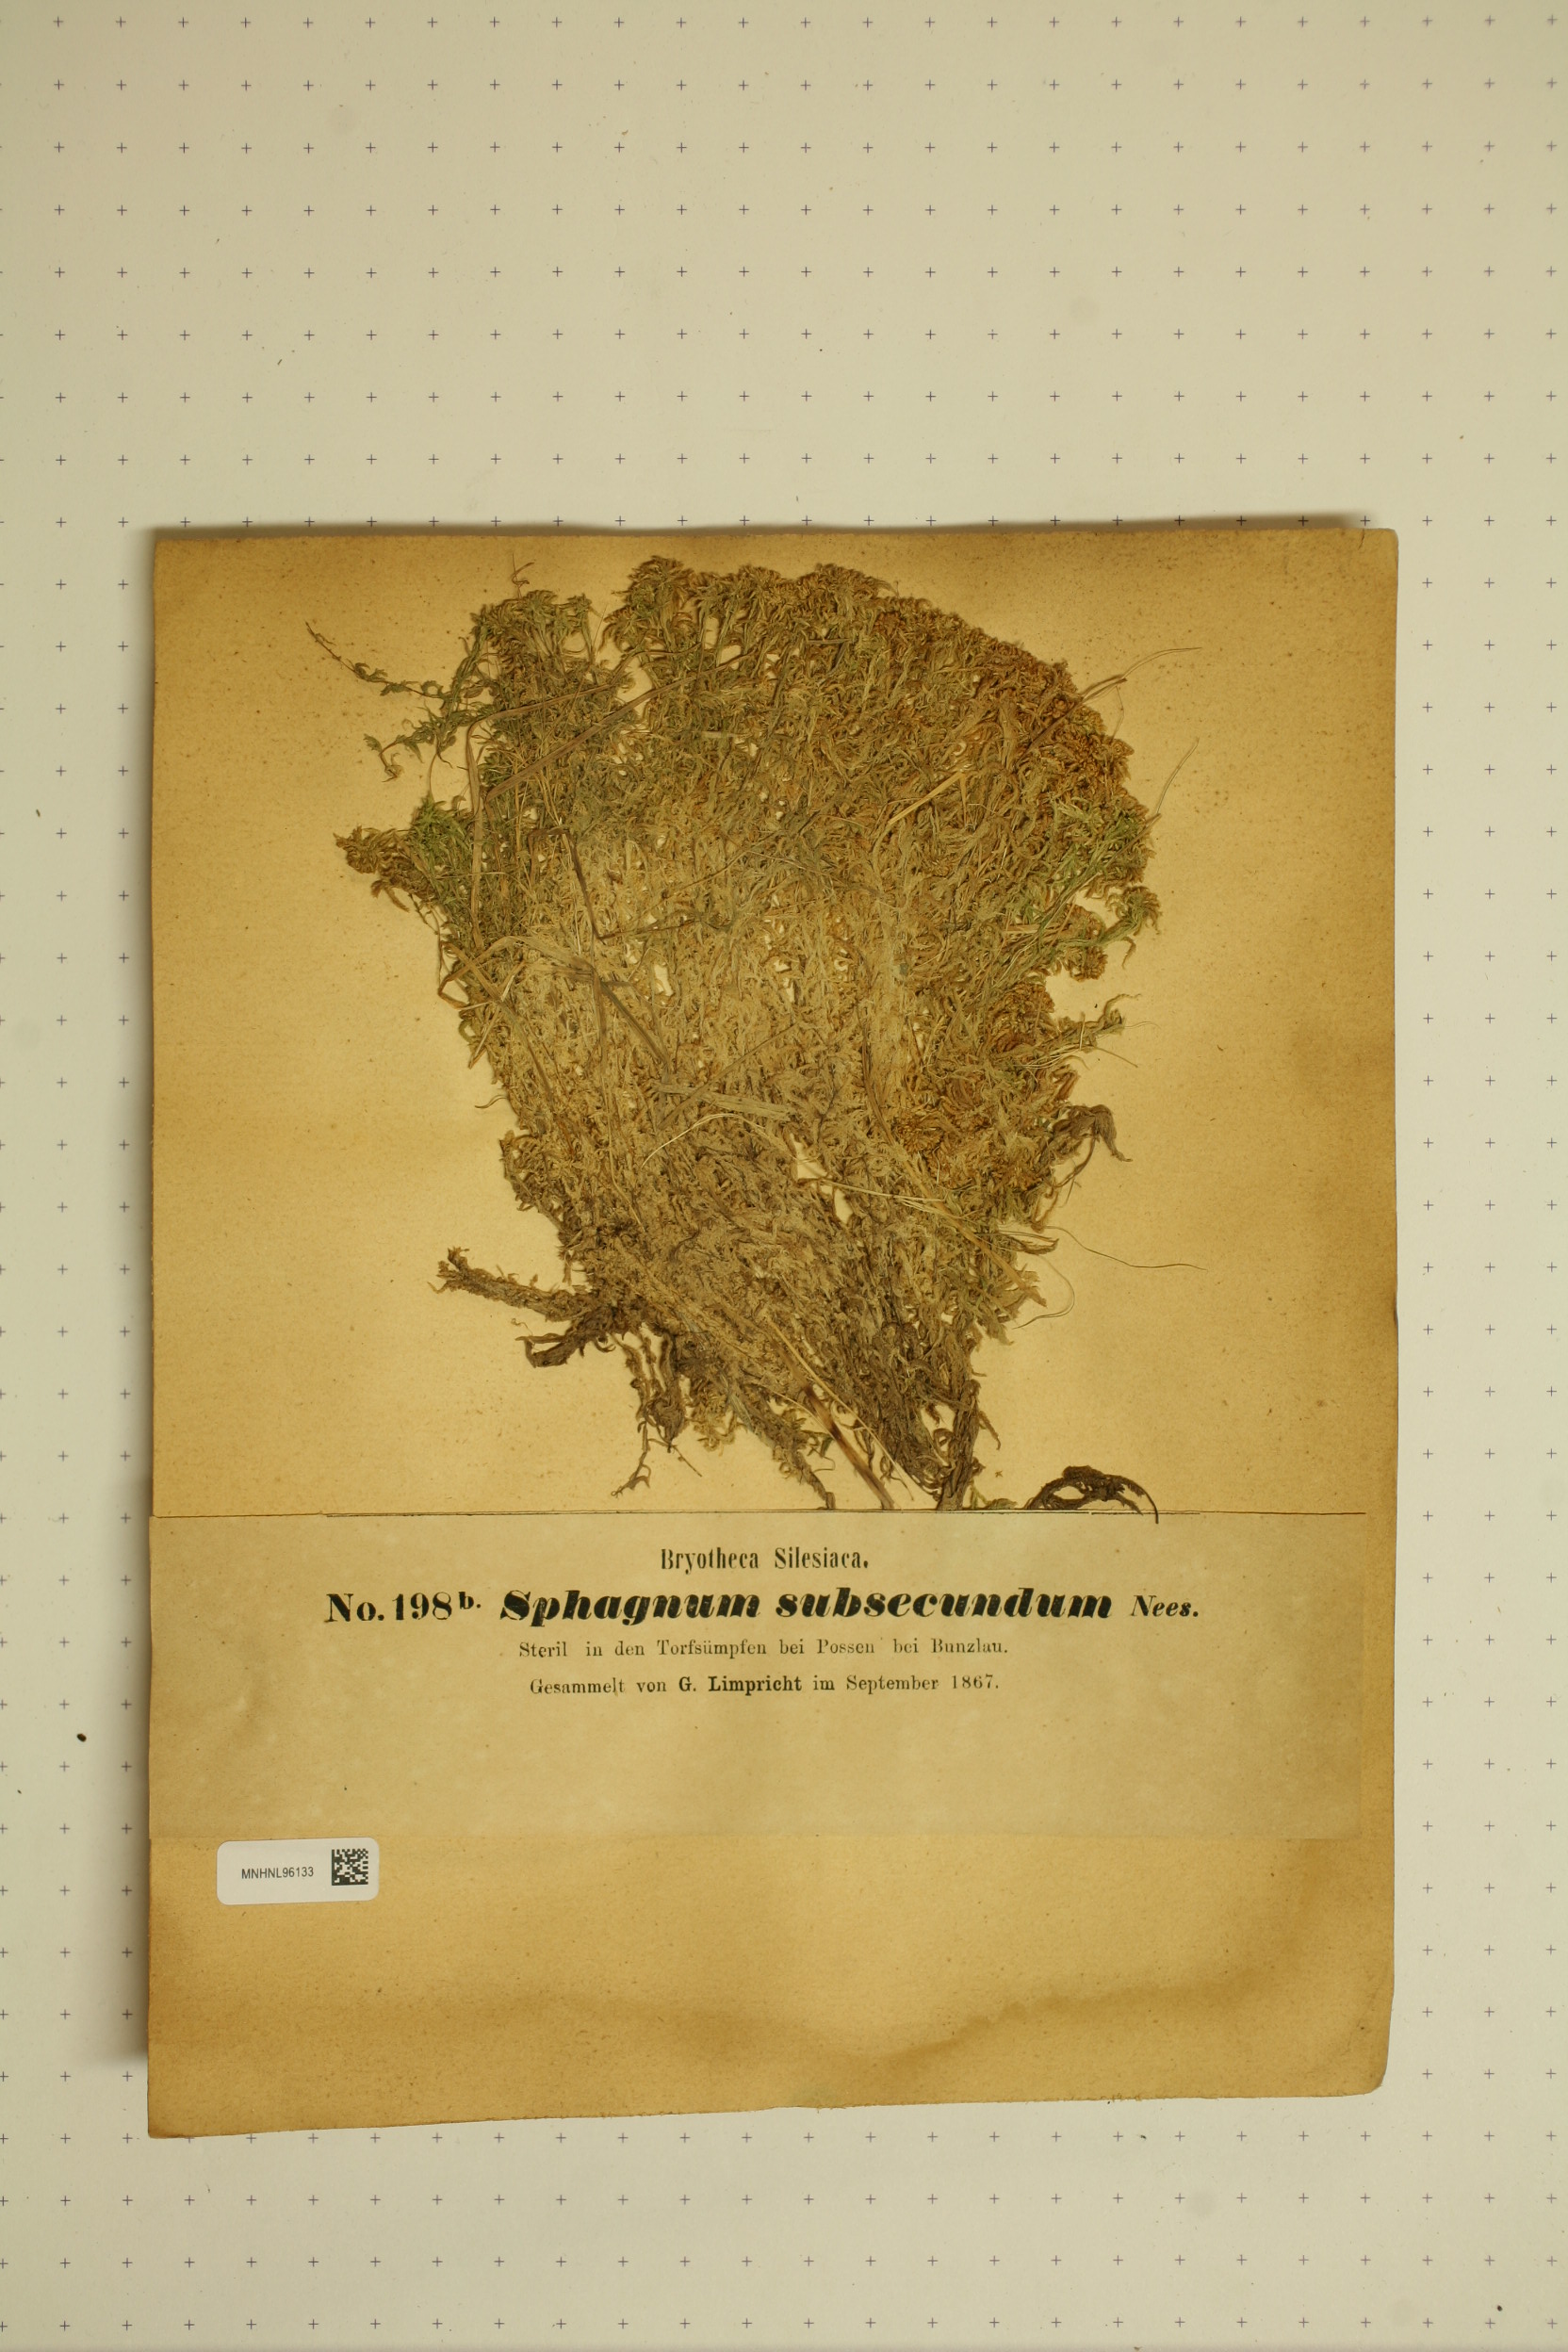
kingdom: Plantae
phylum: Bryophyta
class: Sphagnopsida
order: Sphagnales
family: Sphagnaceae
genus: Sphagnum
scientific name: Sphagnum subsecundum
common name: Orange peat moss
